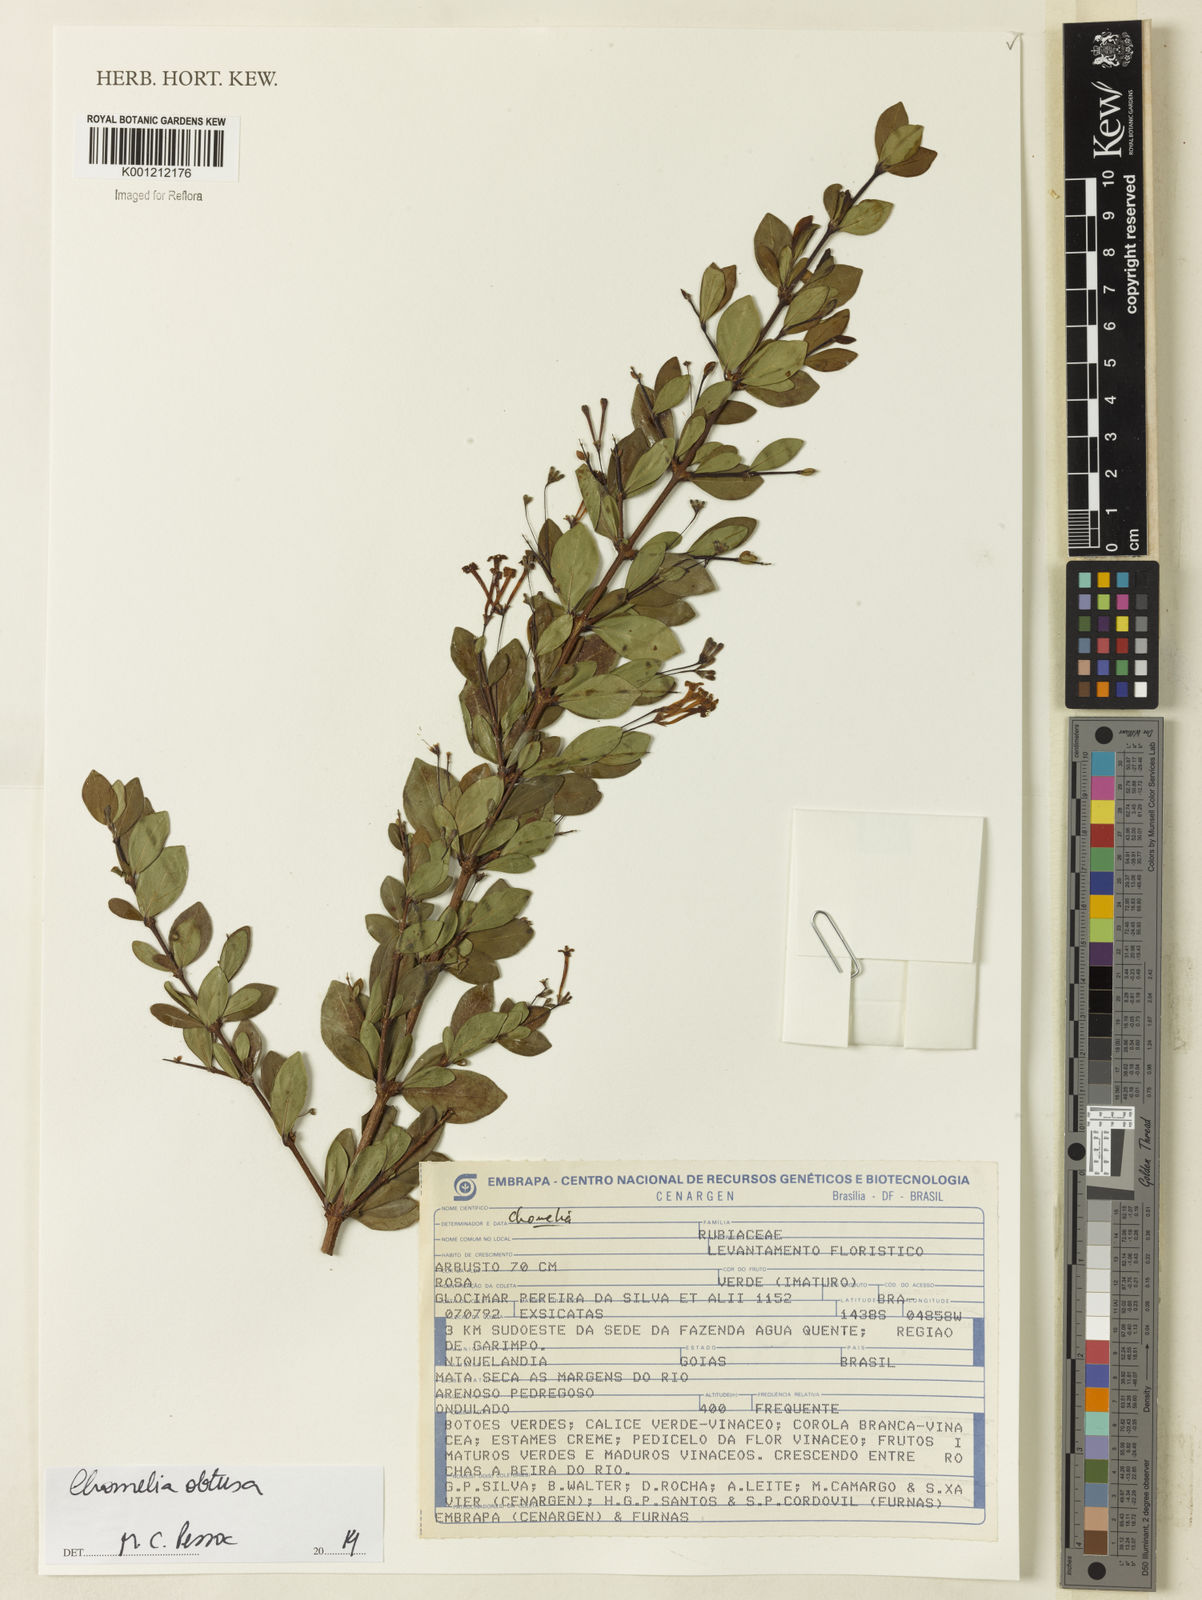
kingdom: Plantae
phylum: Tracheophyta
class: Magnoliopsida
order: Gentianales
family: Rubiaceae
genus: Chomelia
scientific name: Chomelia obtusa
